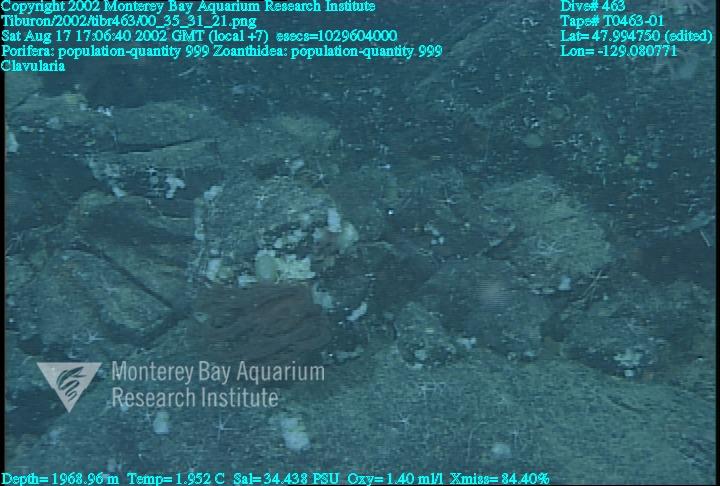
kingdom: Animalia
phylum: Porifera
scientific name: Porifera
